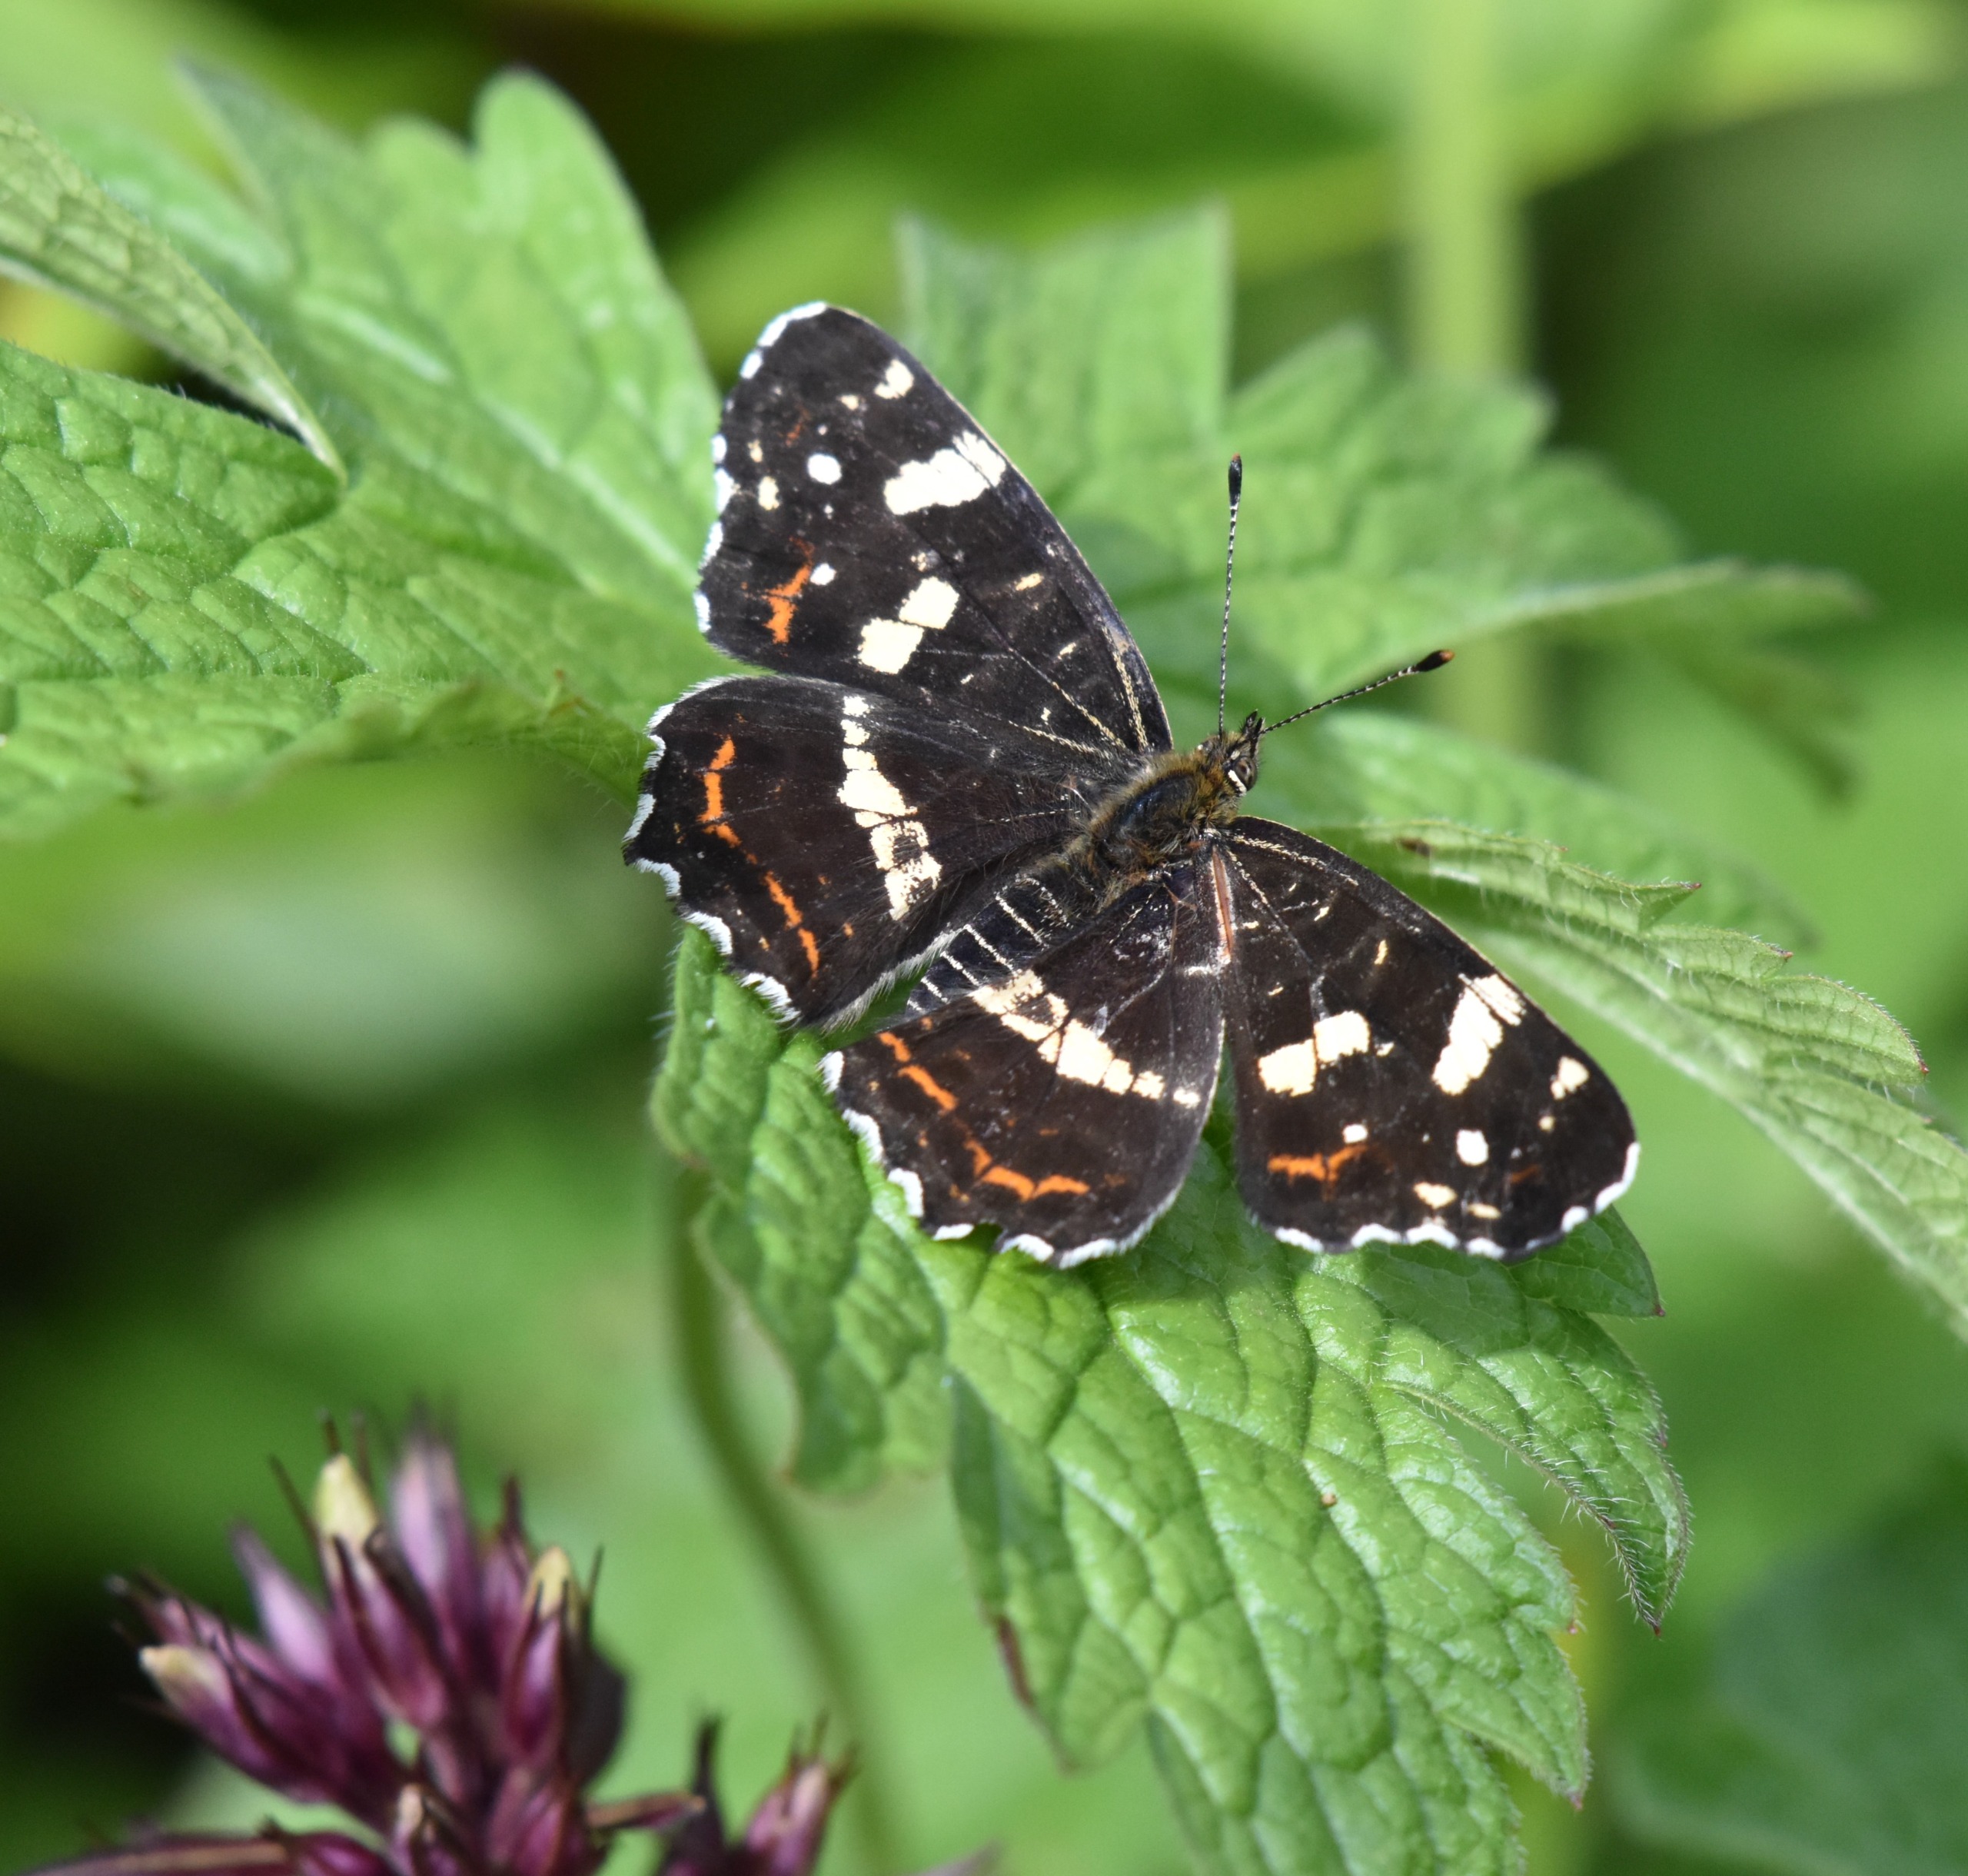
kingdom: Animalia
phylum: Arthropoda
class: Insecta
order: Lepidoptera
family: Nymphalidae
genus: Araschnia
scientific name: Araschnia levana
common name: Nældesommerfugl
